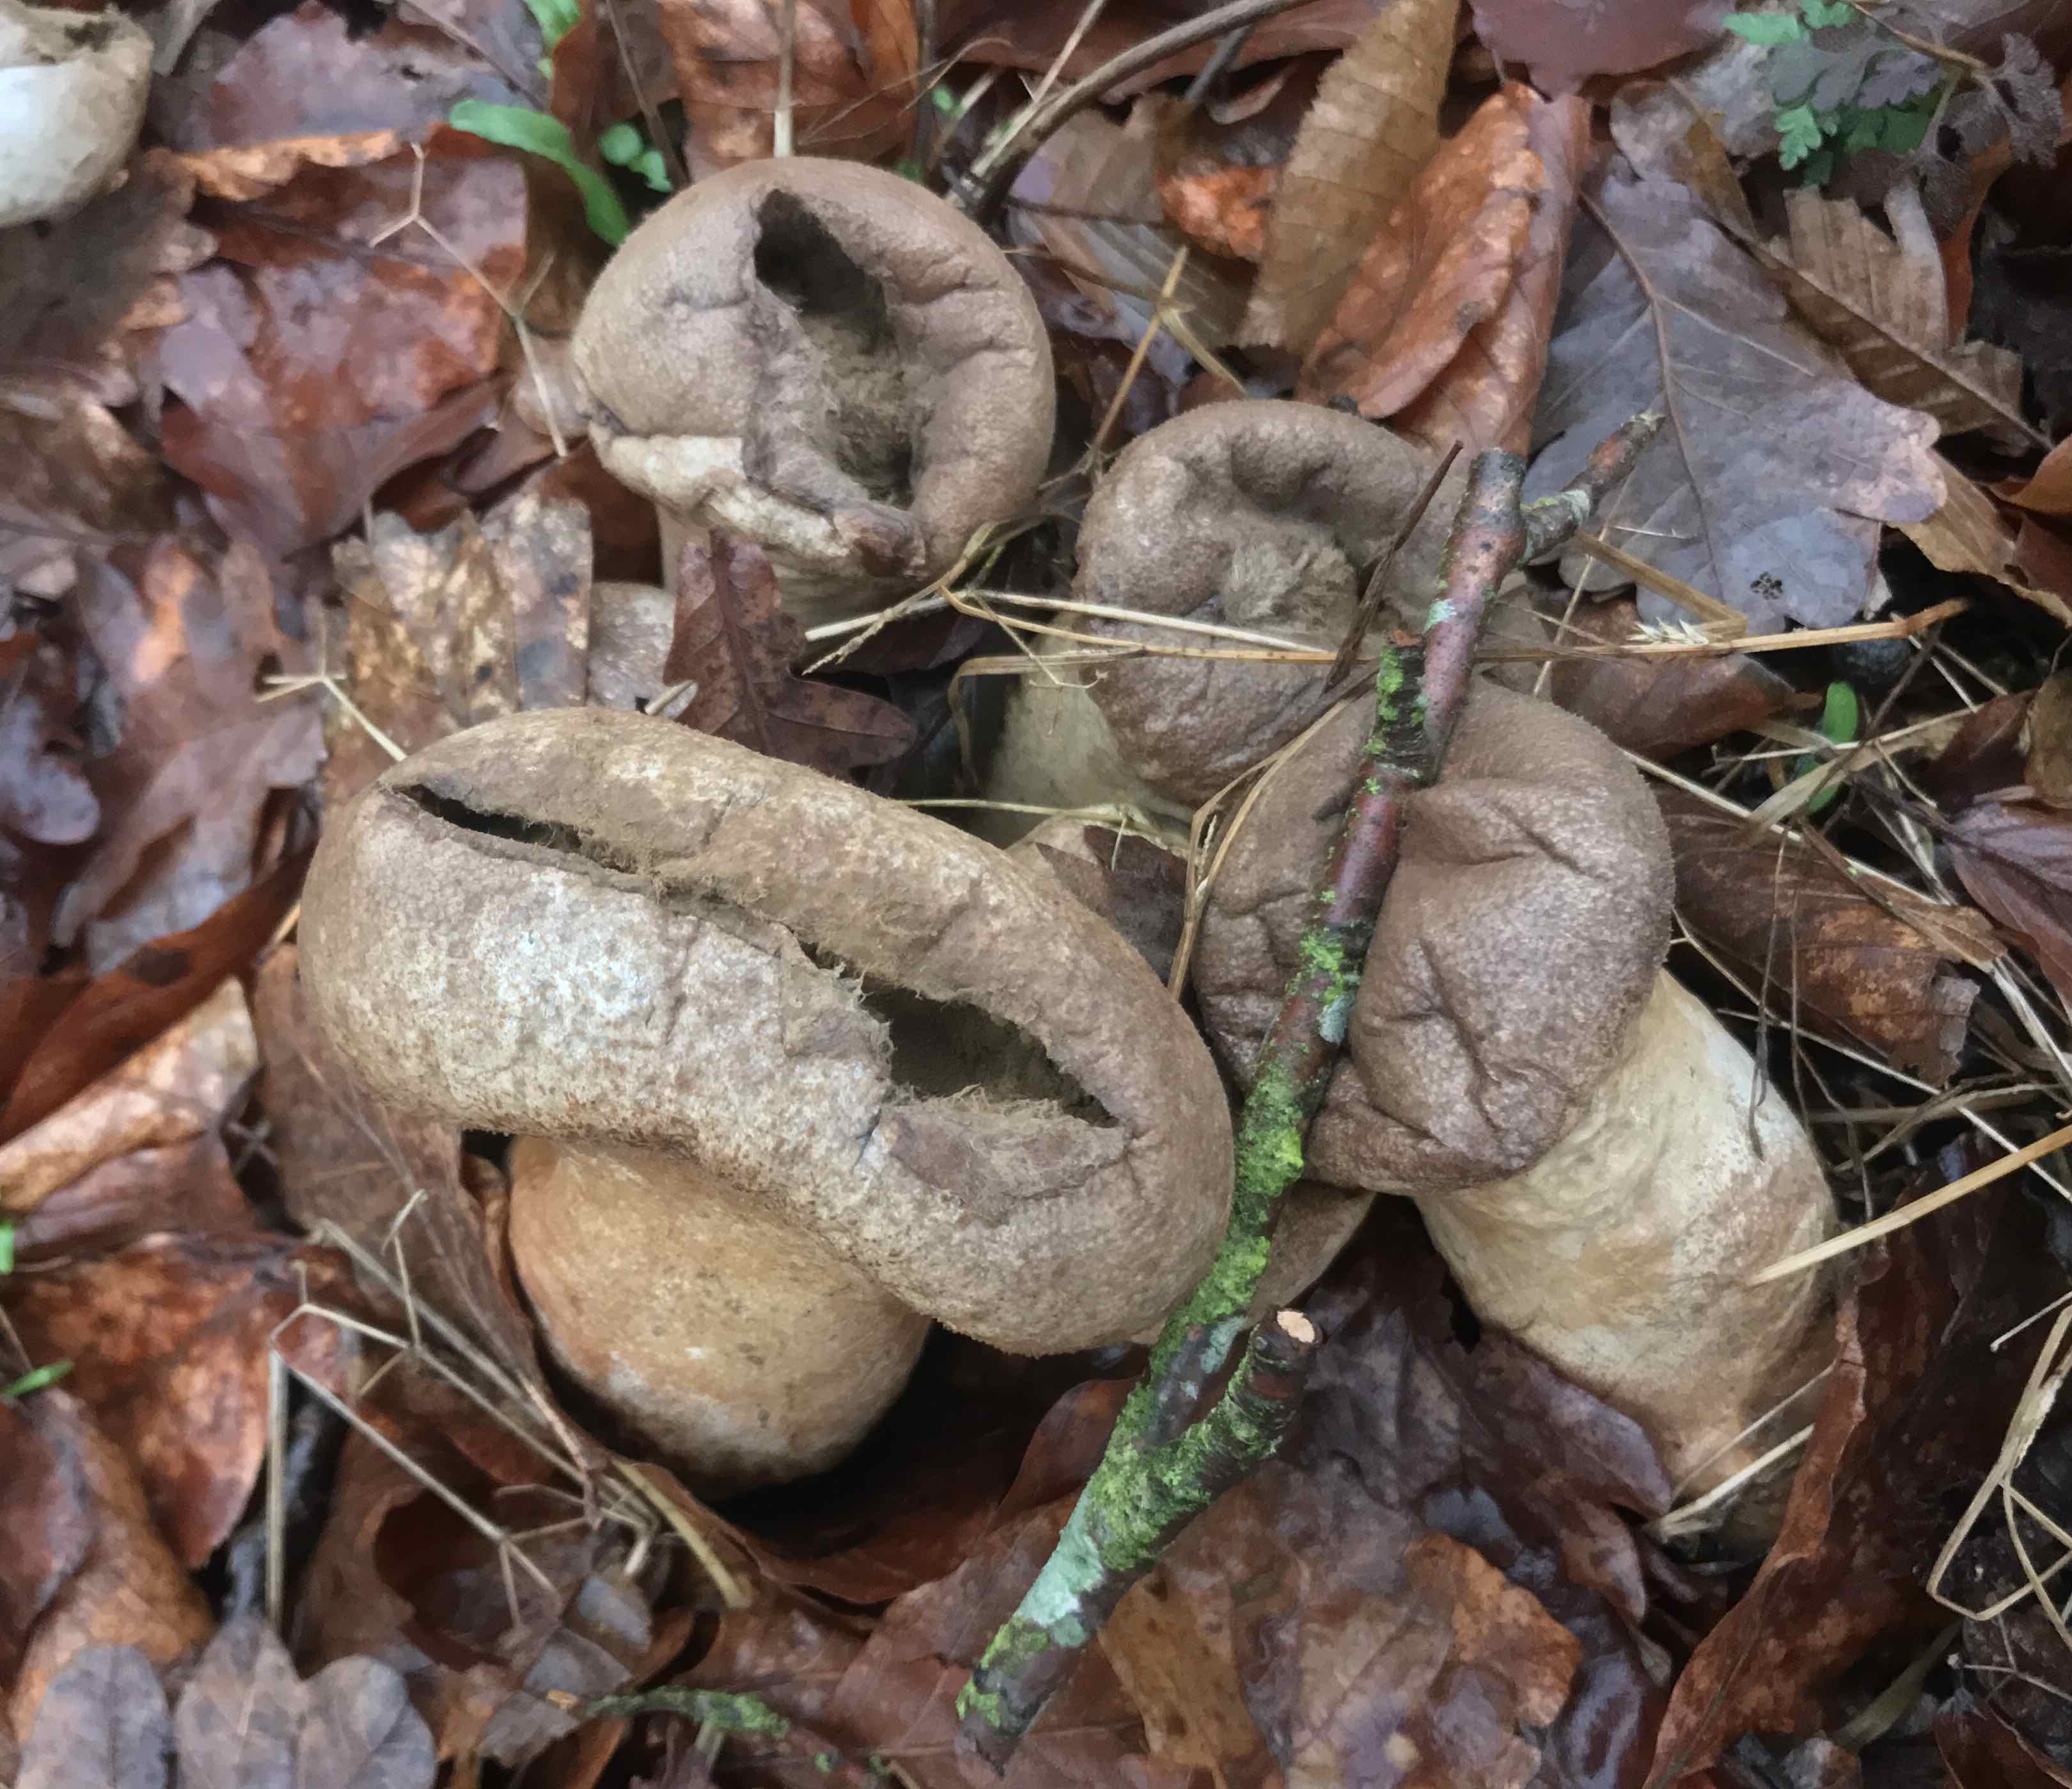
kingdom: Fungi
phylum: Basidiomycota
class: Agaricomycetes
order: Agaricales
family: Agaricaceae
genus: Lycoperdon
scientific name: Lycoperdon
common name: støvbold
